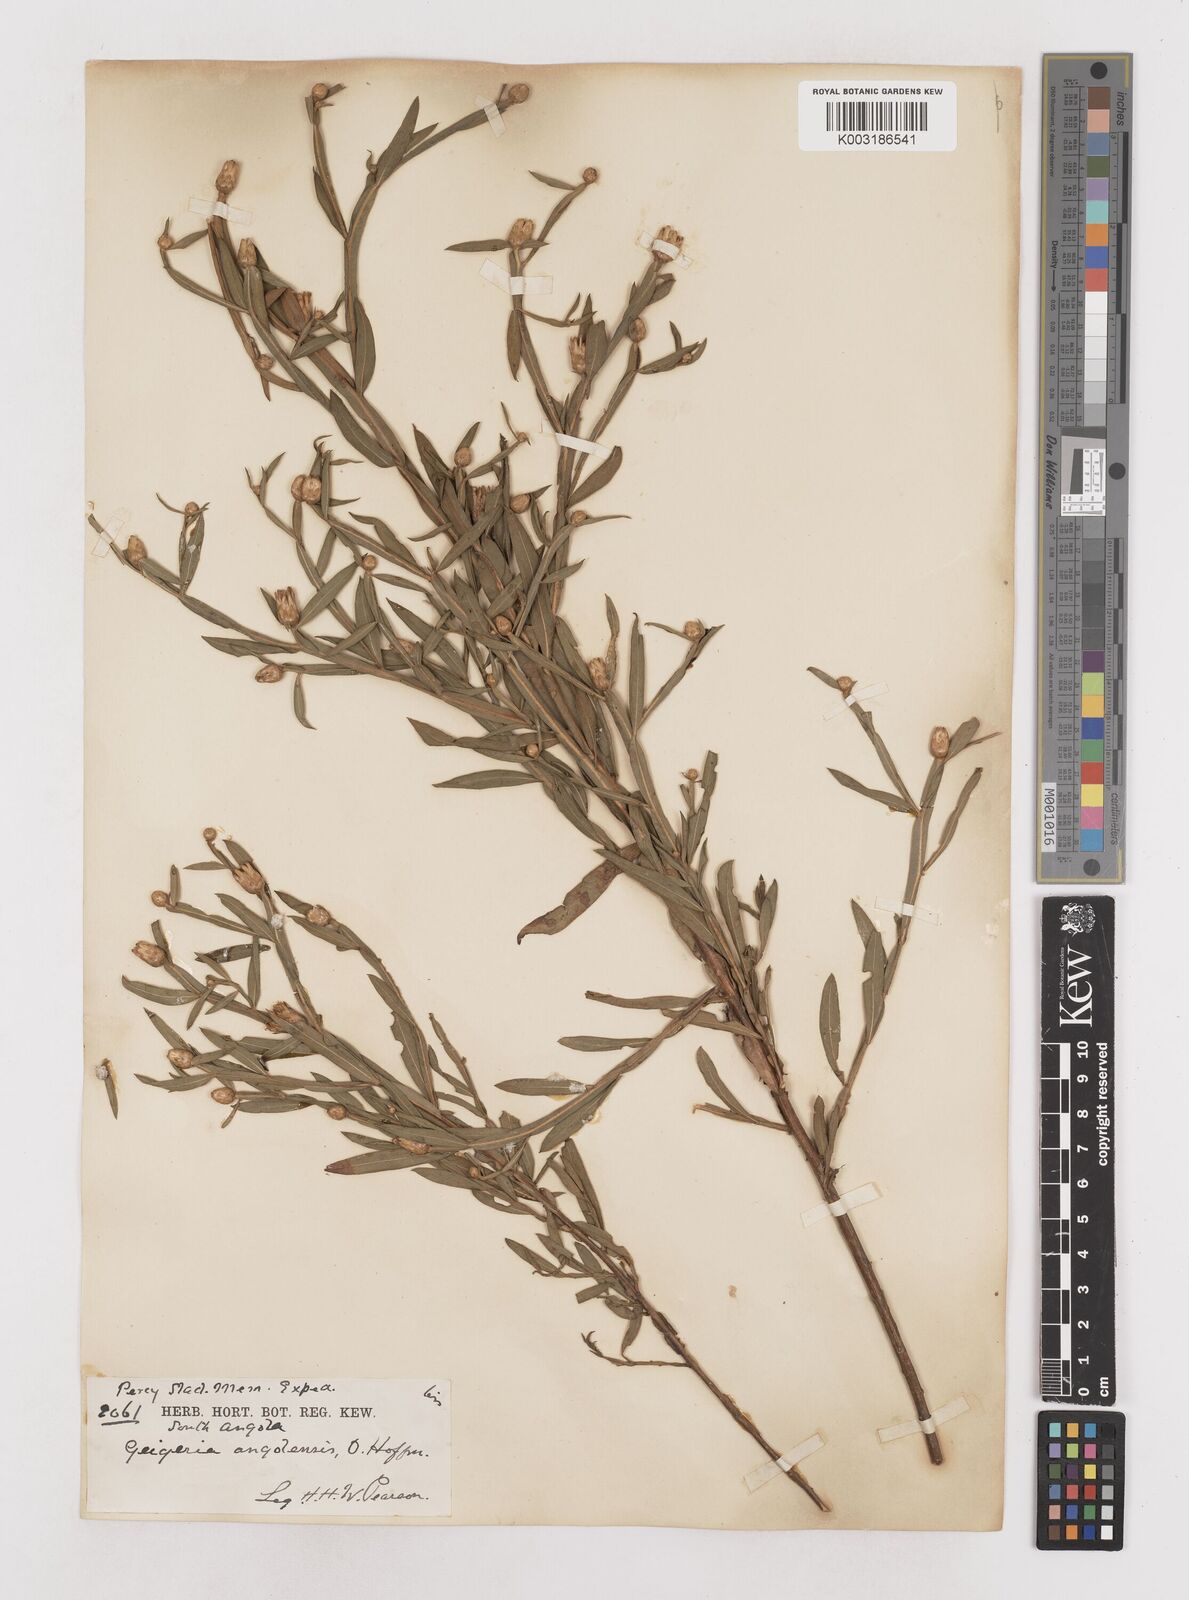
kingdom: Plantae
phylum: Tracheophyta
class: Magnoliopsida
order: Asterales
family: Asteraceae
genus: Geigeria
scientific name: Geigeria angolensis
